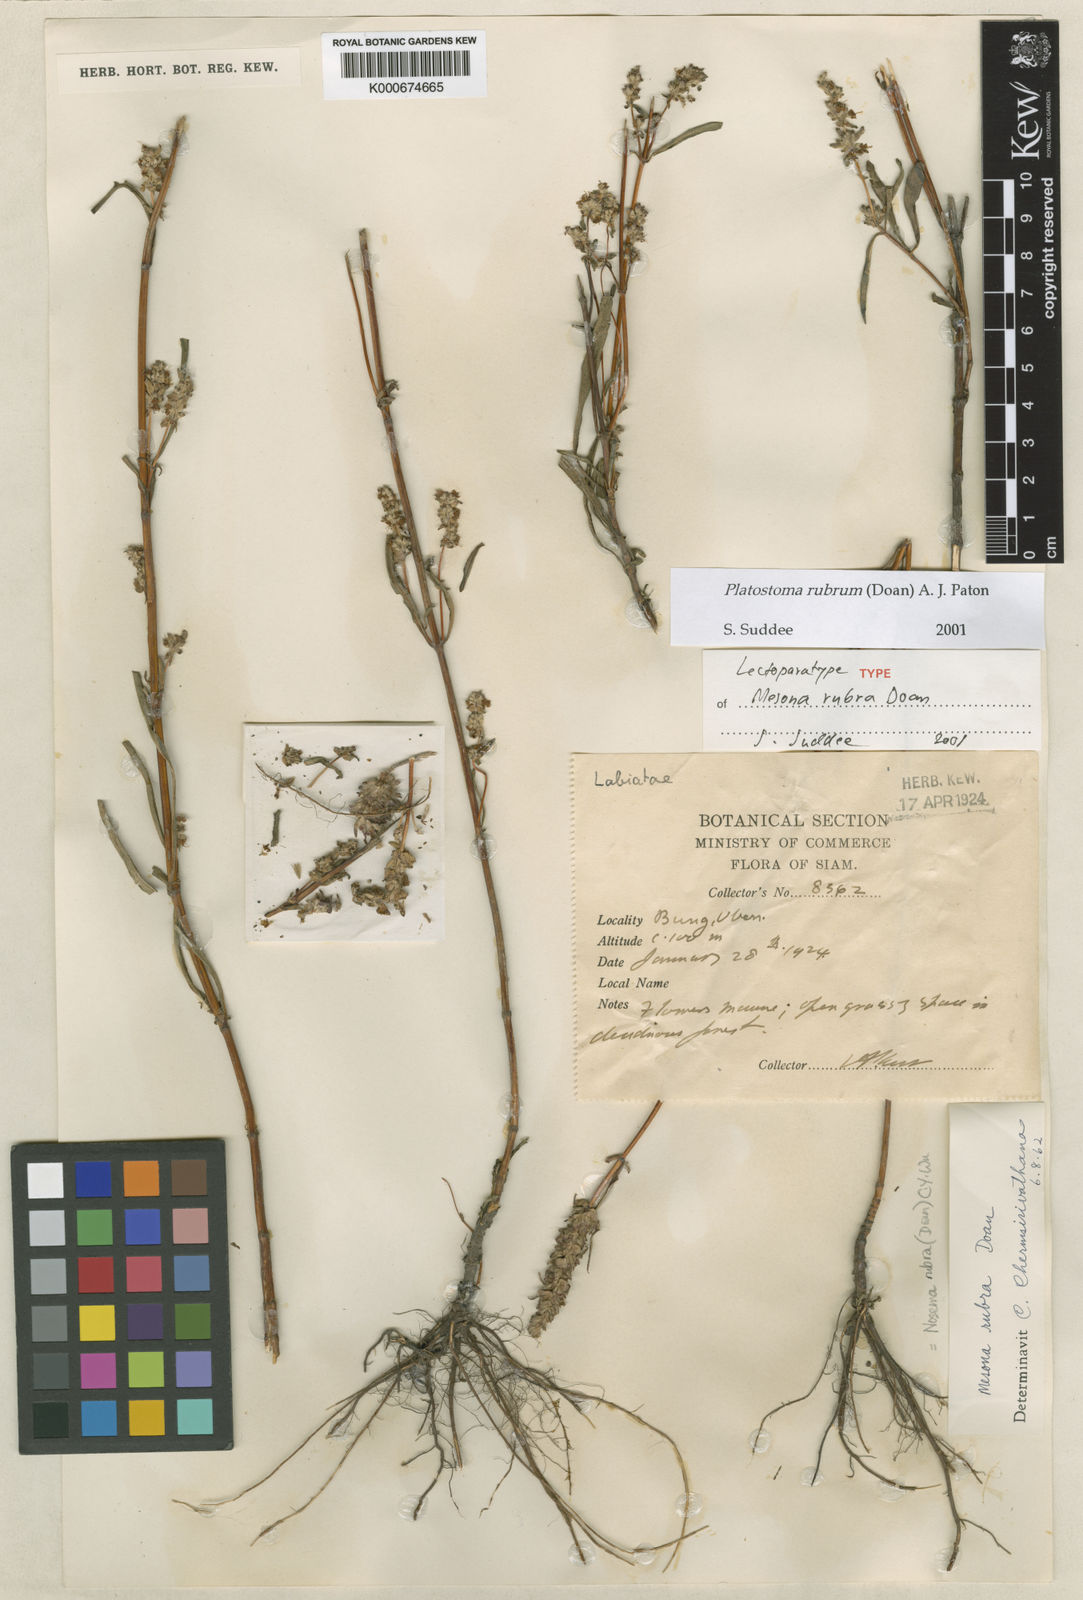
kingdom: Plantae
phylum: Tracheophyta
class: Magnoliopsida
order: Lamiales
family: Lamiaceae
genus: Platostoma
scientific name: Platostoma rubrum
